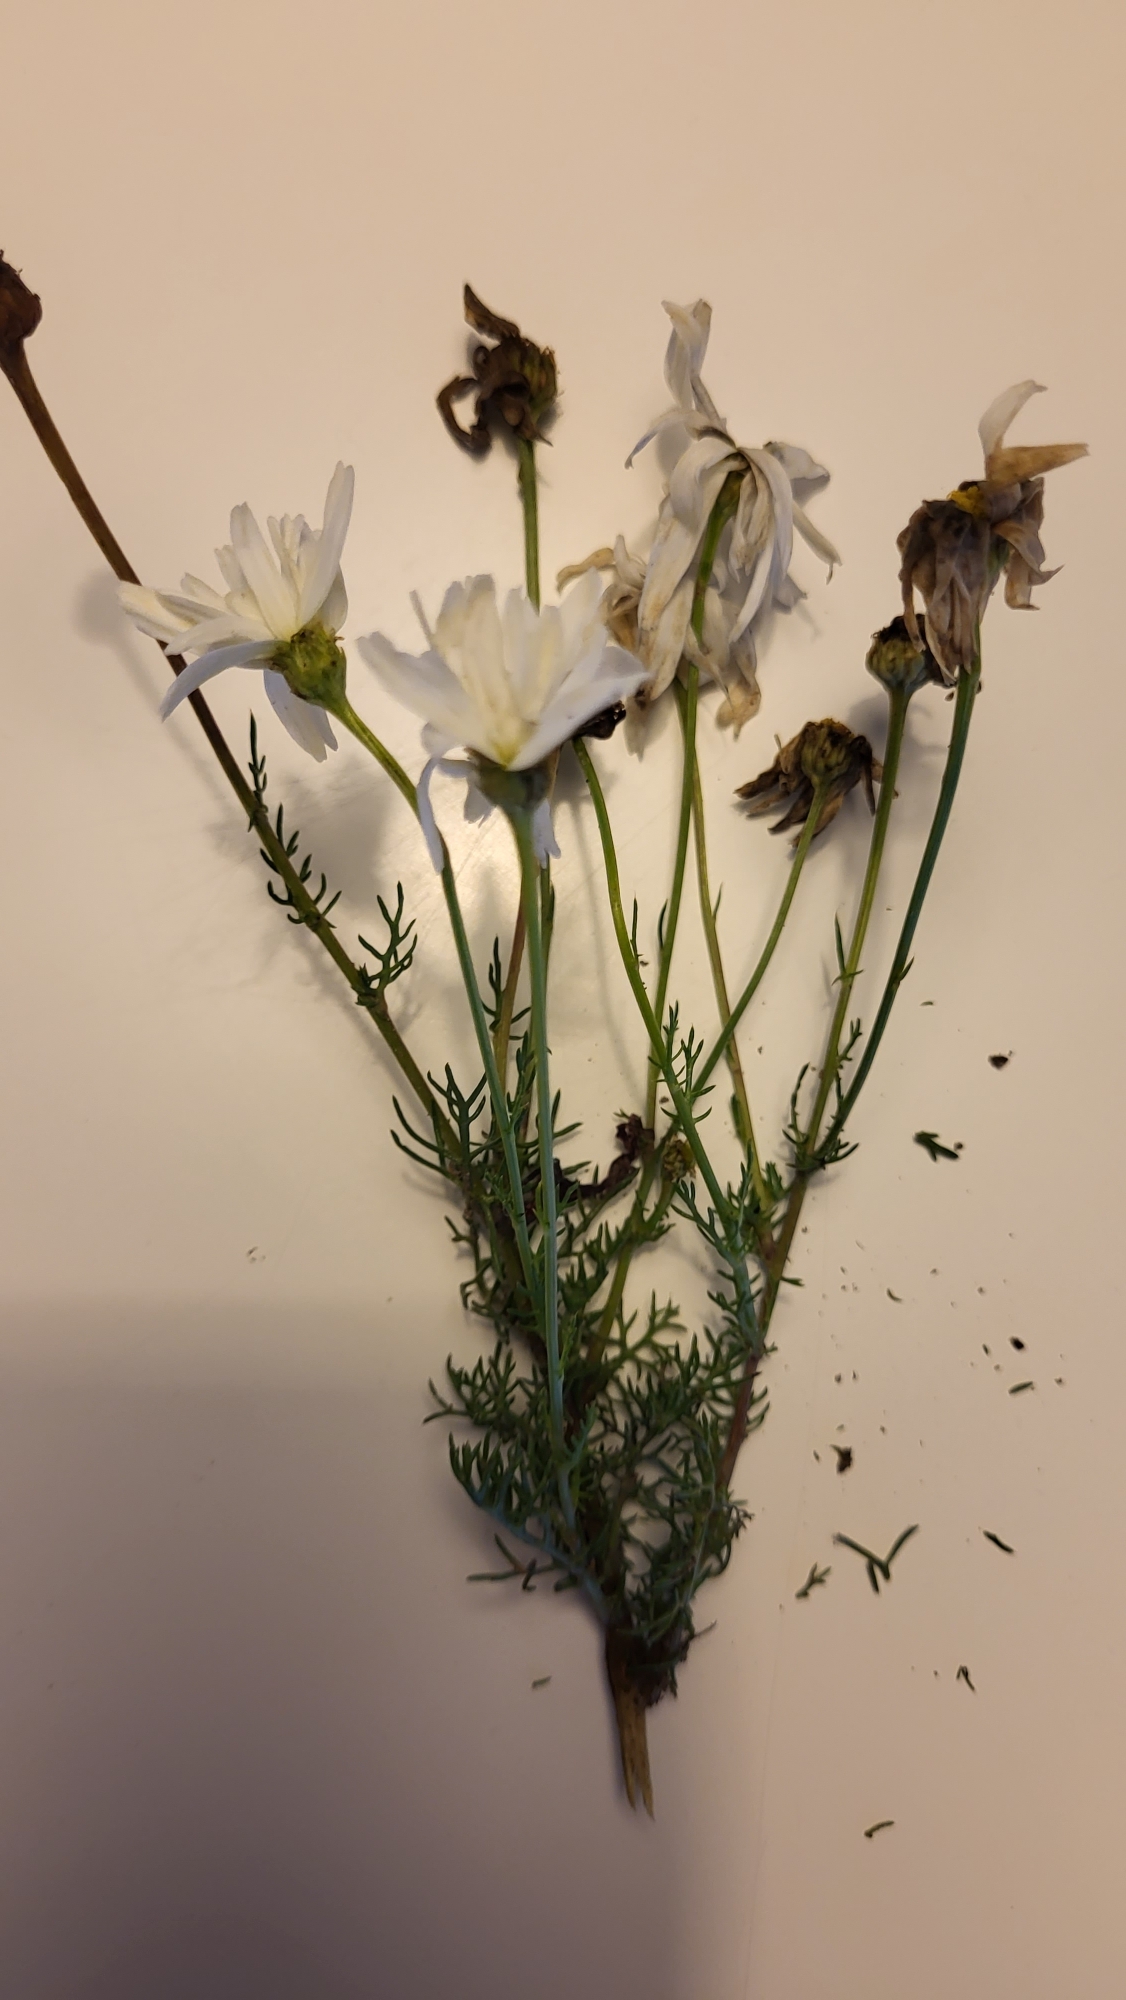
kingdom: Plantae
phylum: Tracheophyta
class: Magnoliopsida
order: Asterales
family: Asteraceae
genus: Tripleurospermum
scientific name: Tripleurospermum inodorum
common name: Lugtløs kamille
